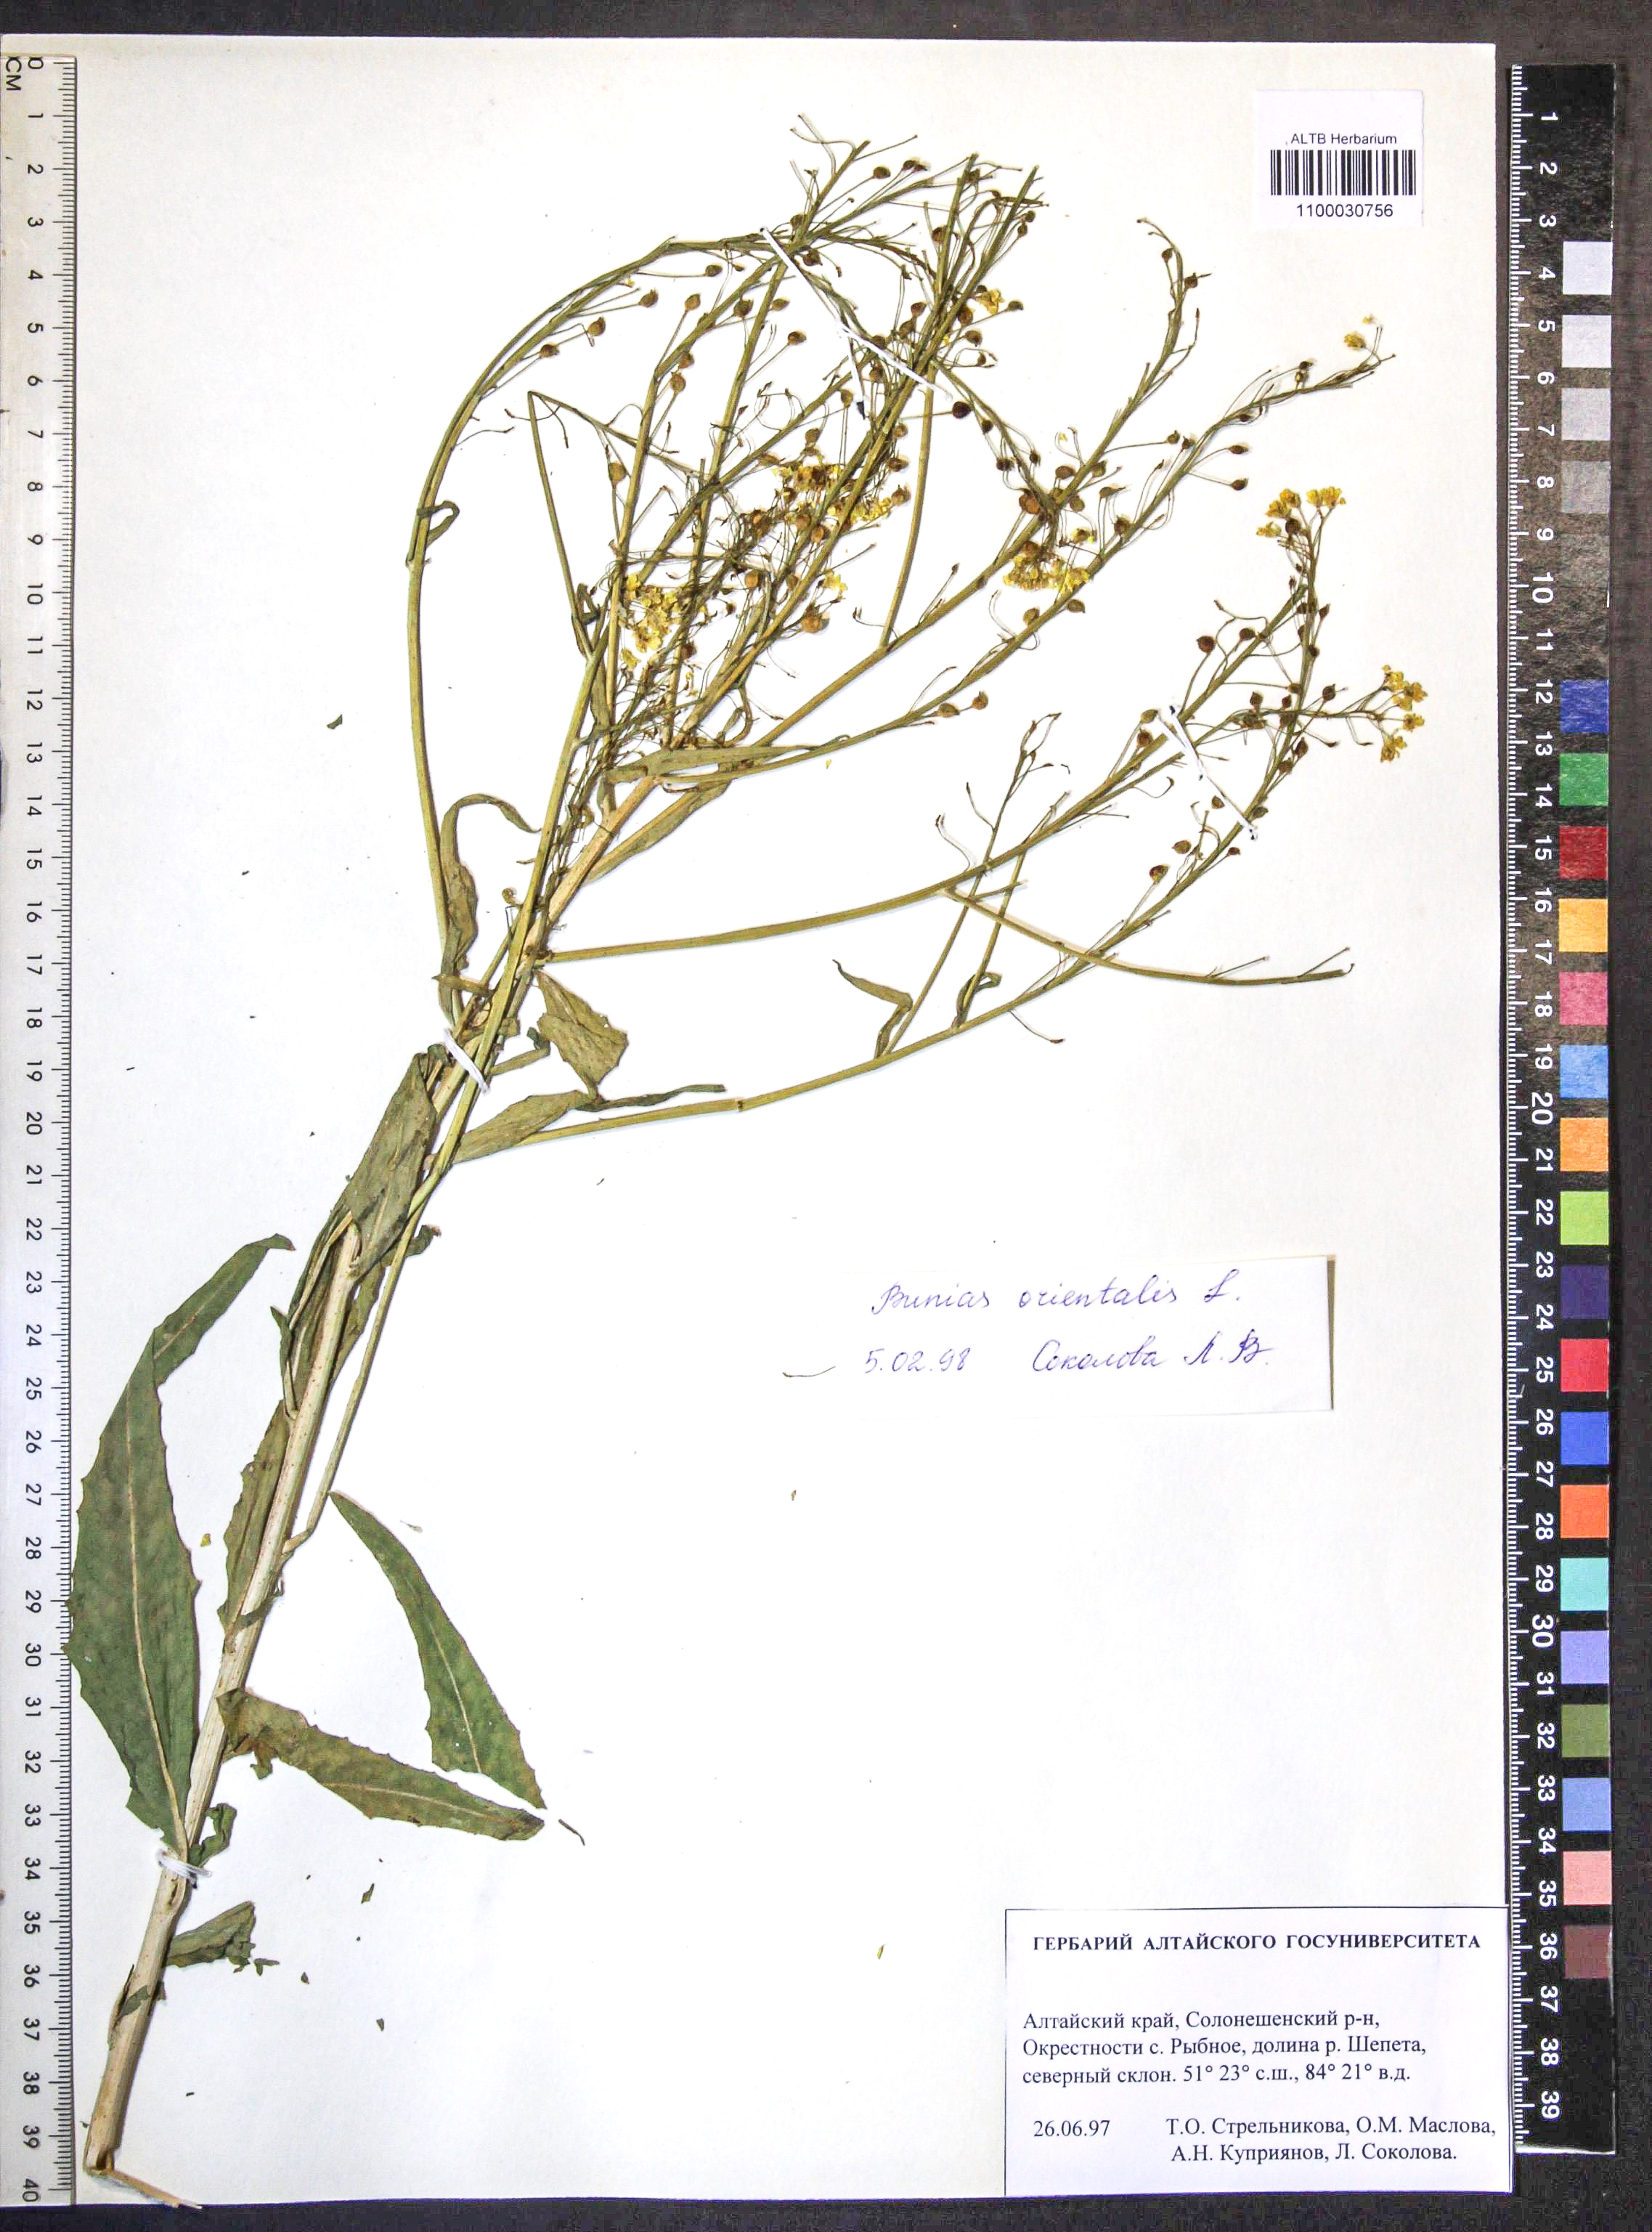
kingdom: Plantae
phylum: Tracheophyta
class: Magnoliopsida
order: Brassicales
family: Brassicaceae
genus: Bunias
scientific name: Bunias orientalis
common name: Warty-cabbage
